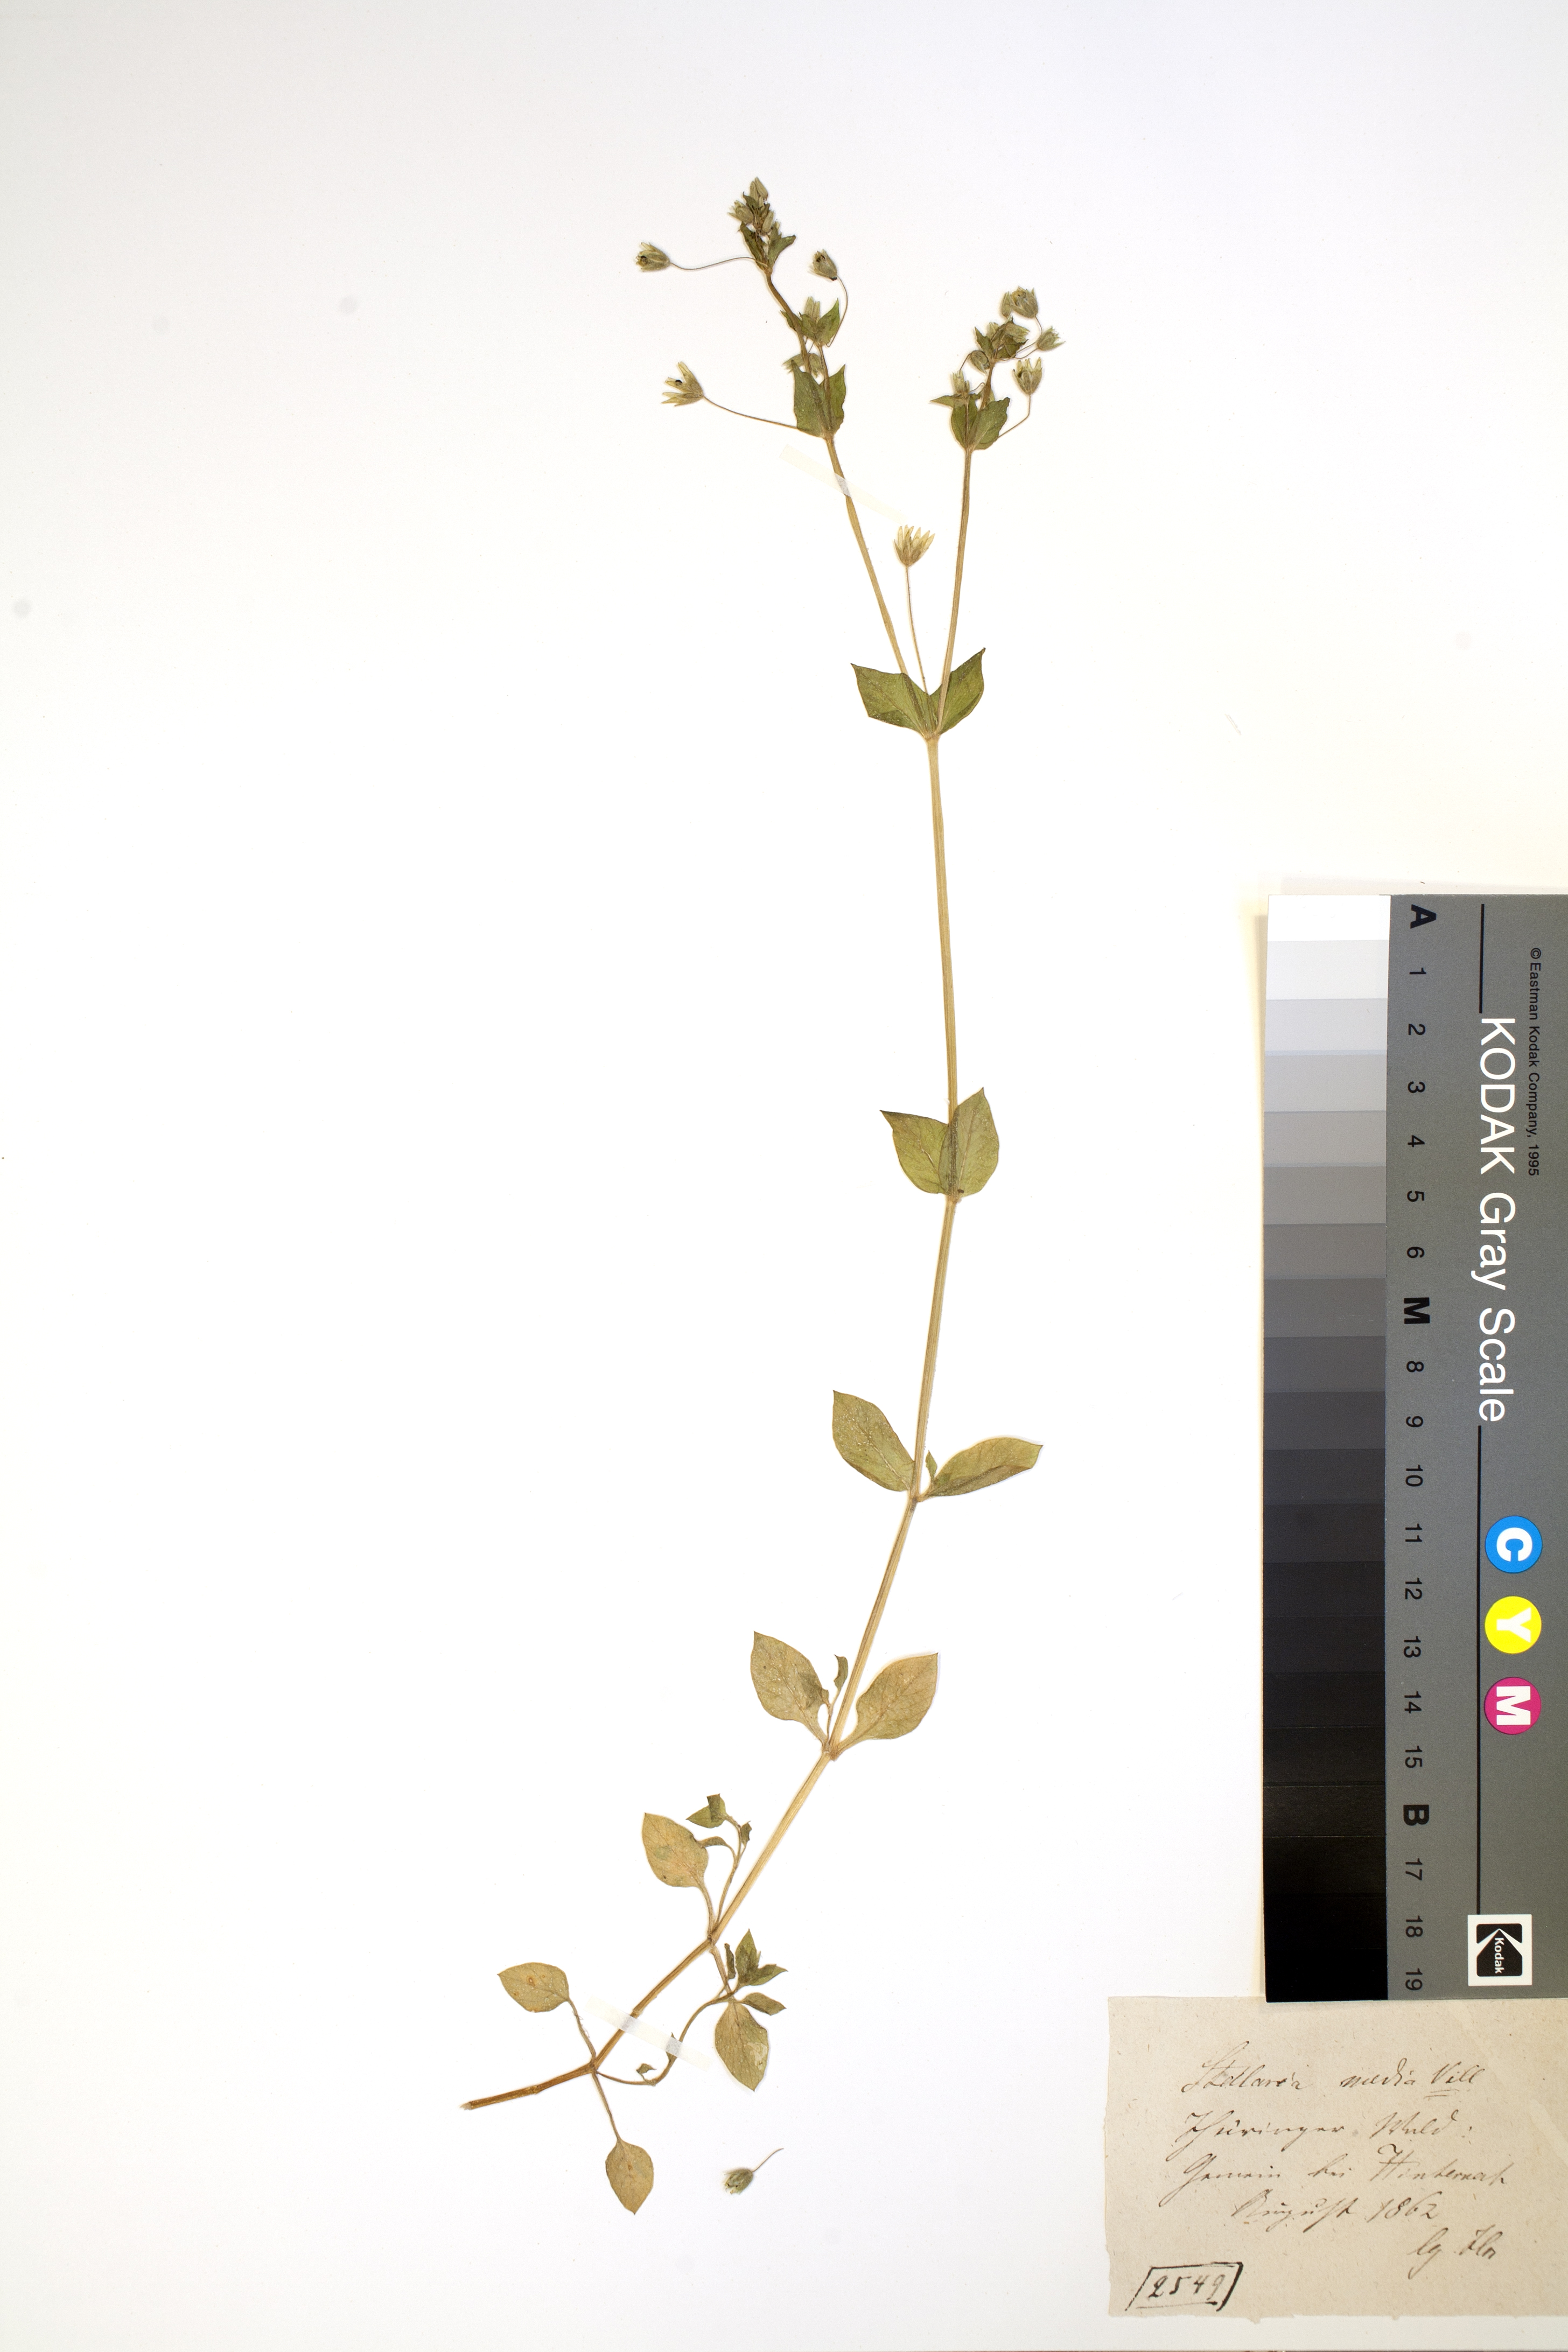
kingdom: Plantae
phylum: Tracheophyta
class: Magnoliopsida
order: Caryophyllales
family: Caryophyllaceae
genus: Stellaria
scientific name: Stellaria media
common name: Common chickweed
